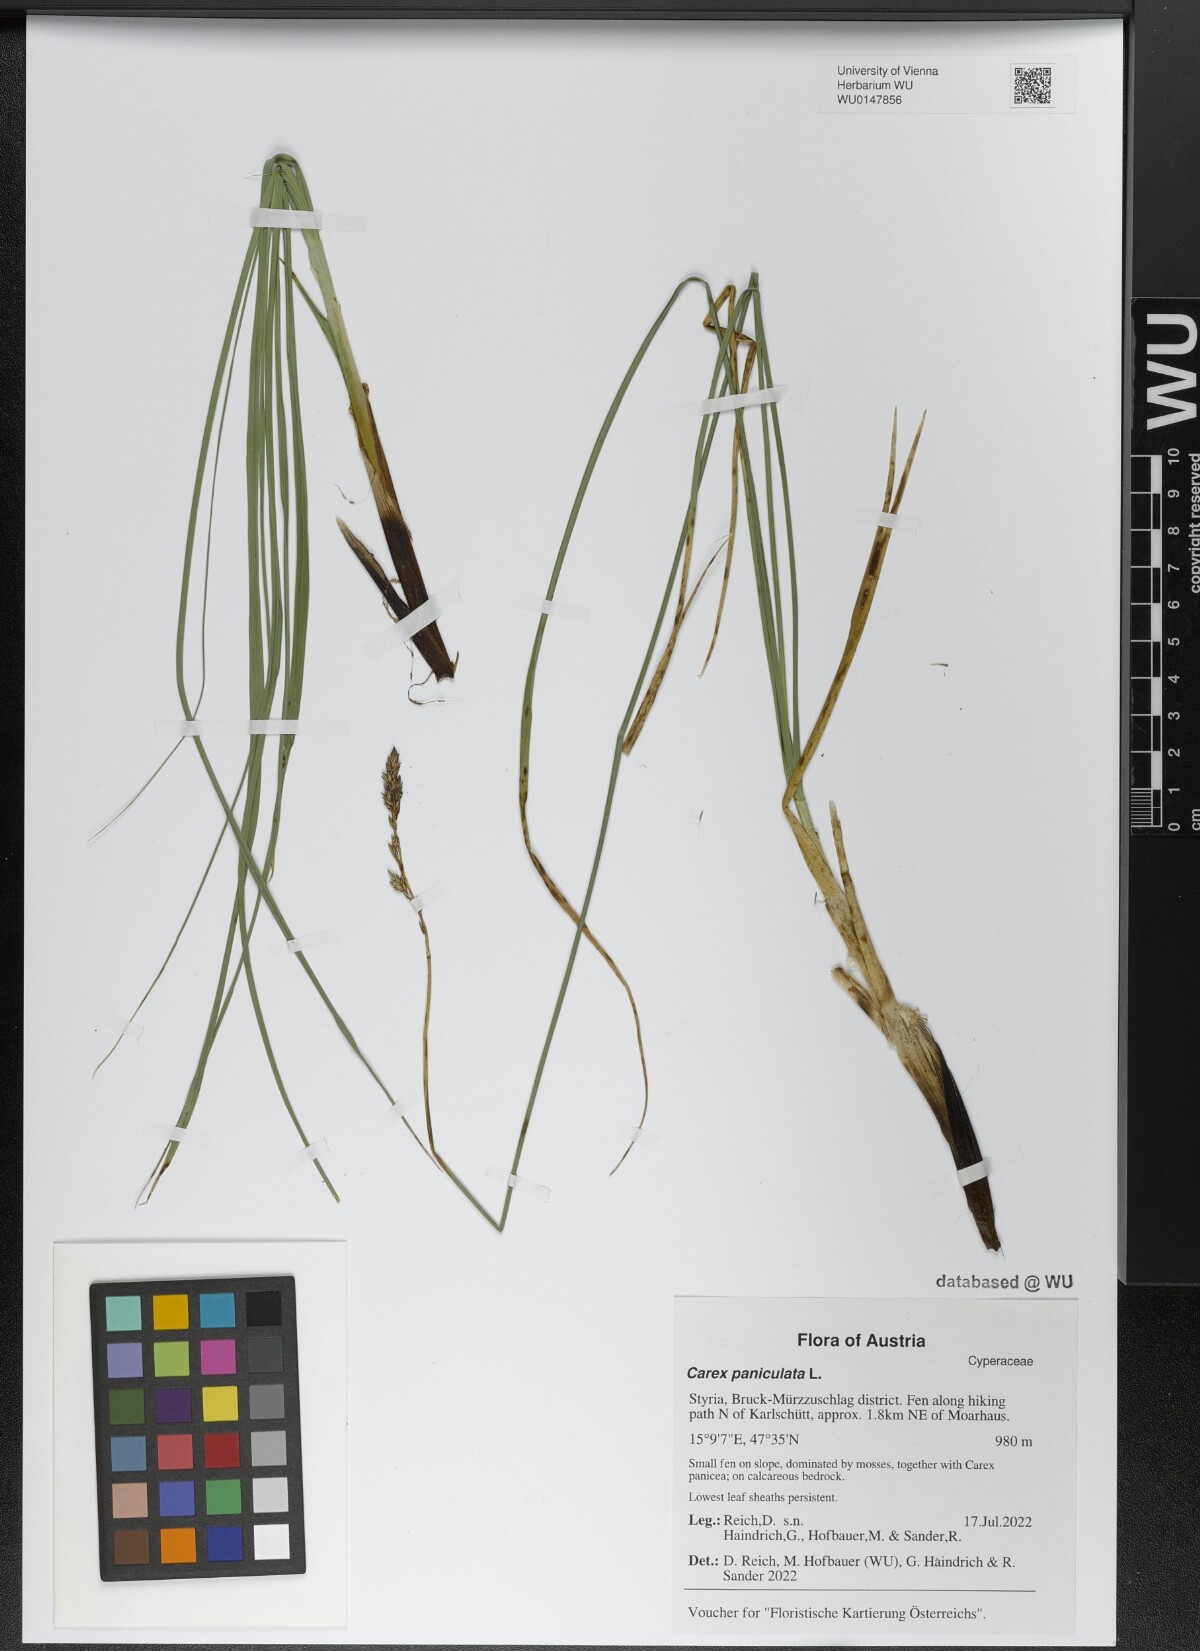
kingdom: Plantae
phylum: Tracheophyta
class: Liliopsida
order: Poales
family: Cyperaceae
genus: Carex
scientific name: Carex paniculata
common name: Greater tussock-sedge
